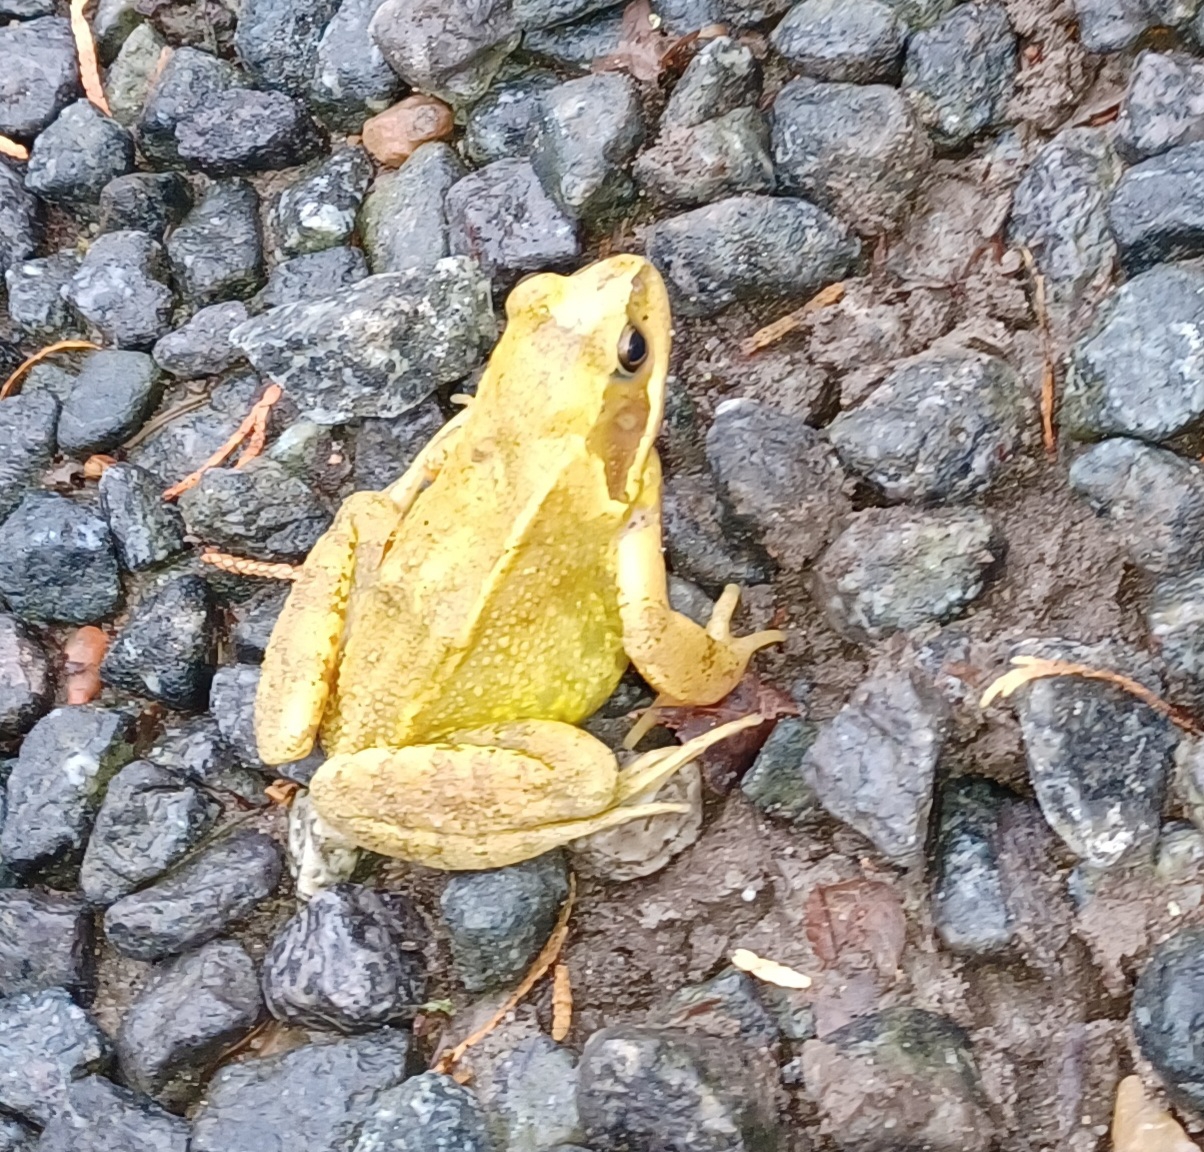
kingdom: Animalia
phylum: Chordata
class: Amphibia
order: Anura
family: Ranidae
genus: Rana
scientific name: Rana temporaria
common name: Butsnudet frø
